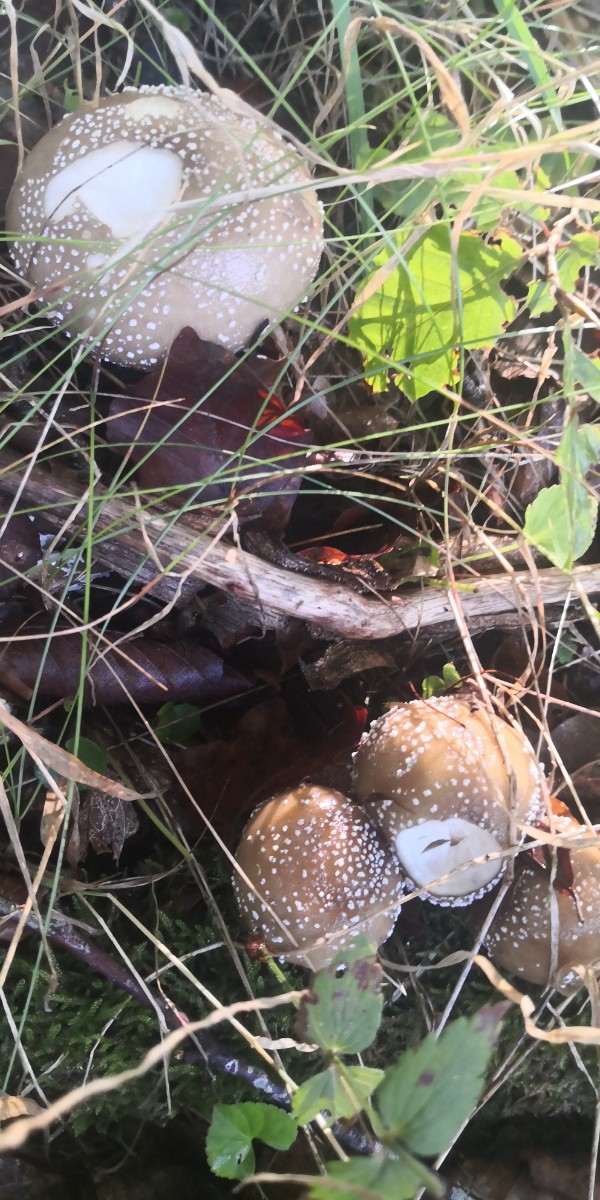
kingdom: Fungi
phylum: Basidiomycota
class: Agaricomycetes
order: Agaricales
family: Amanitaceae
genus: Amanita
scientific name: Amanita pantherina
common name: panter-fluesvamp
